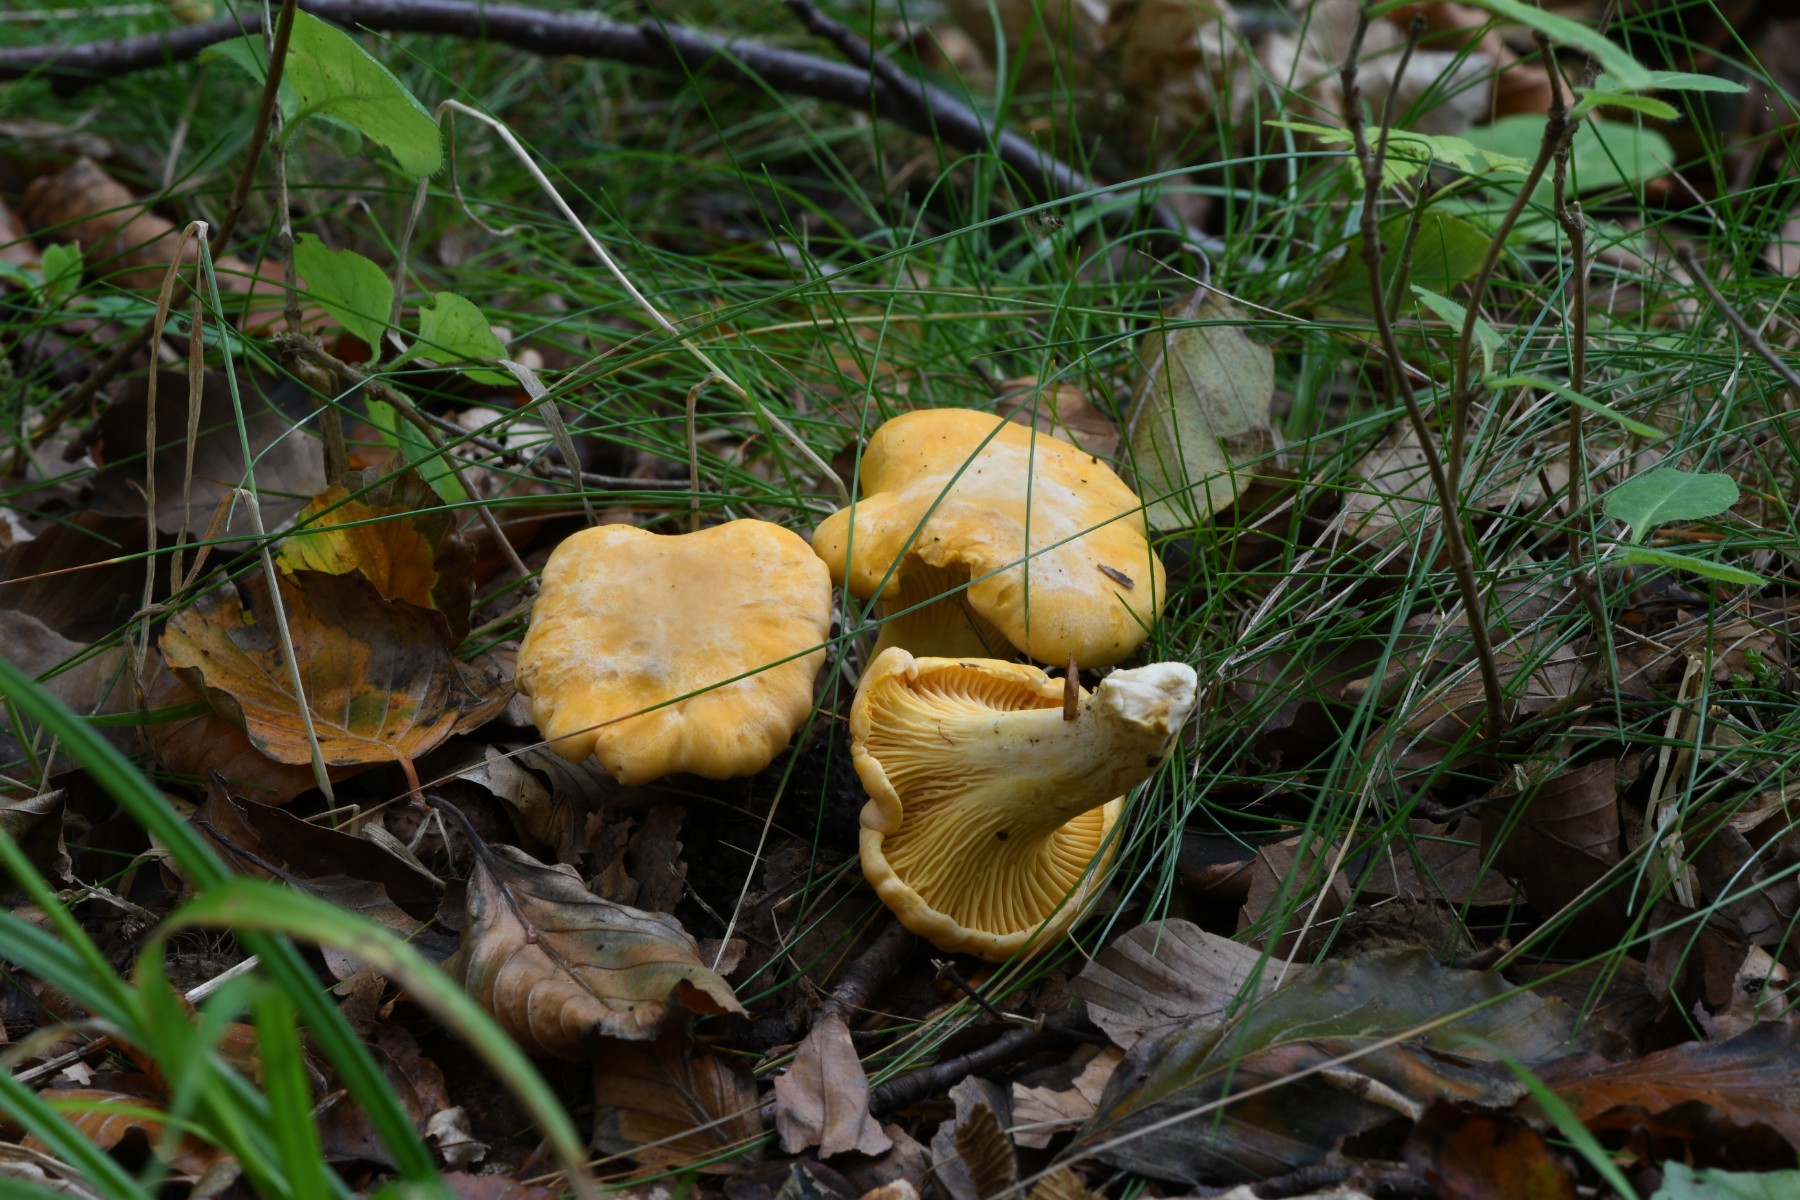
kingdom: Fungi
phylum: Basidiomycota
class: Agaricomycetes
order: Cantharellales
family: Hydnaceae
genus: Cantharellus
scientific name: Cantharellus pallens
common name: bleg kantarel
